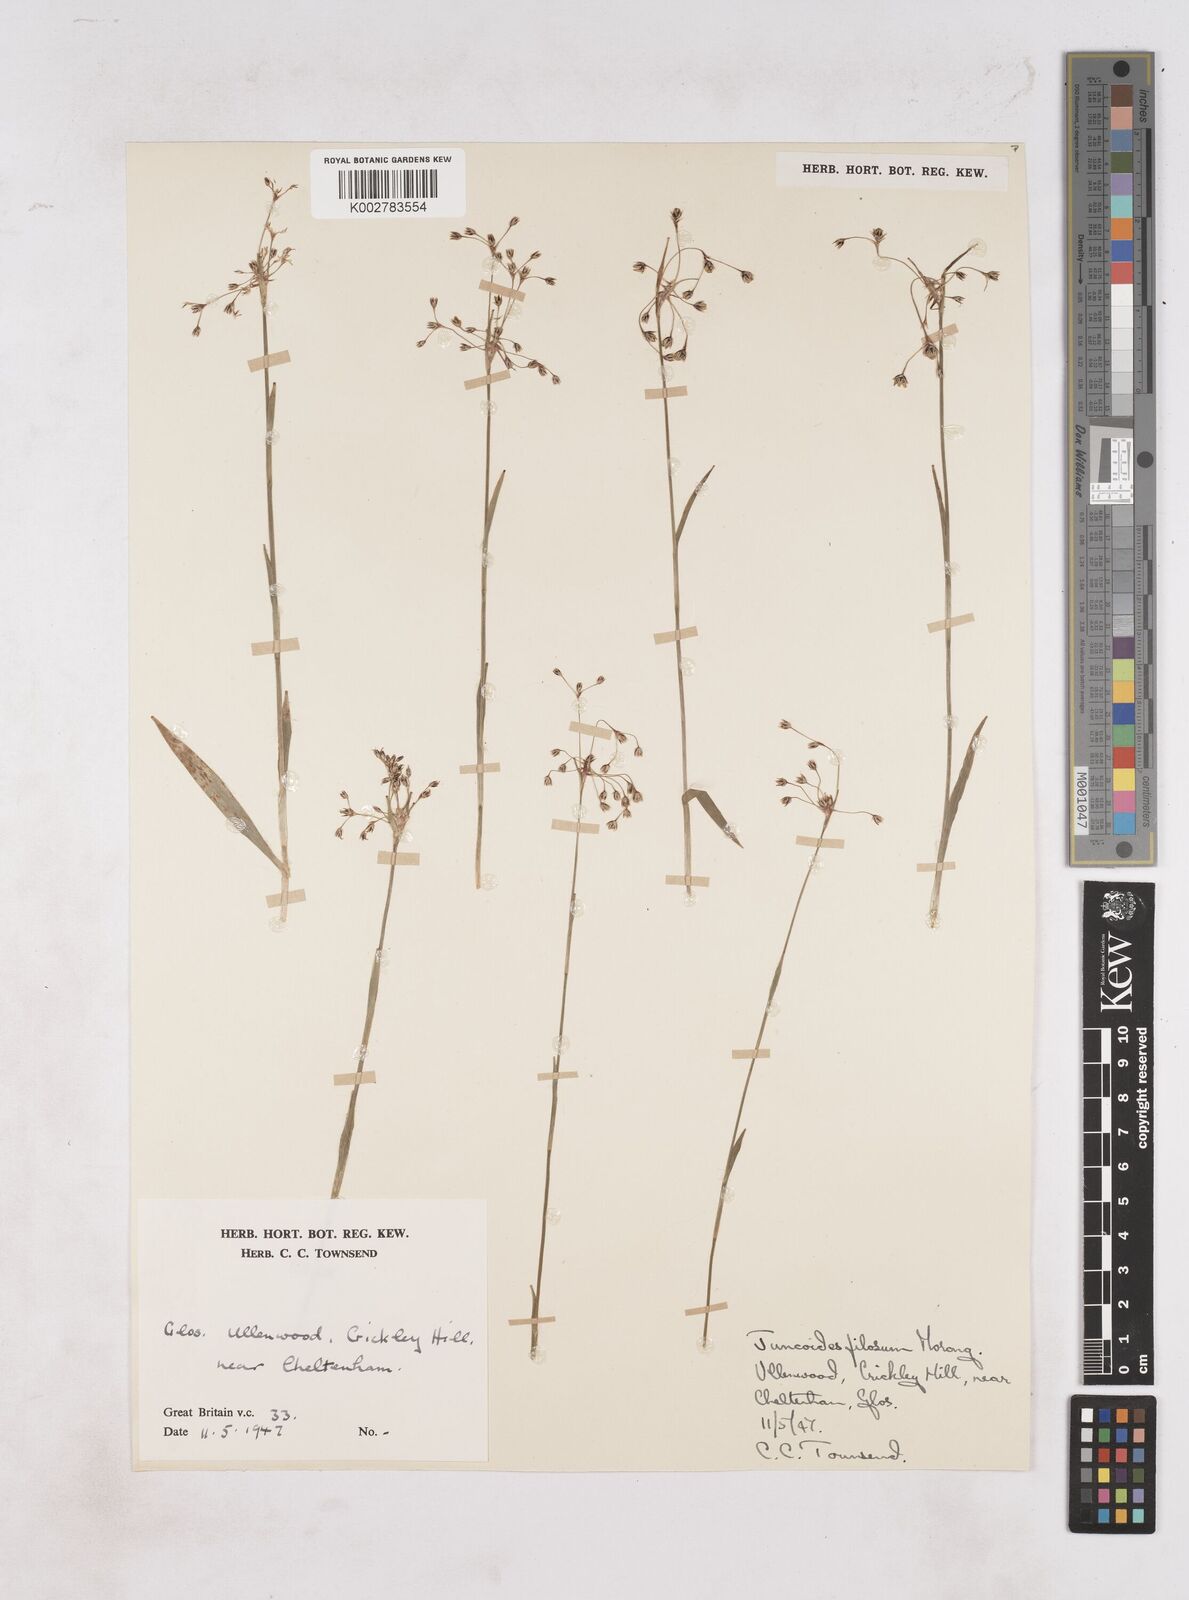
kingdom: Plantae
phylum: Tracheophyta
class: Liliopsida
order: Poales
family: Juncaceae
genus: Luzula
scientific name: Luzula
